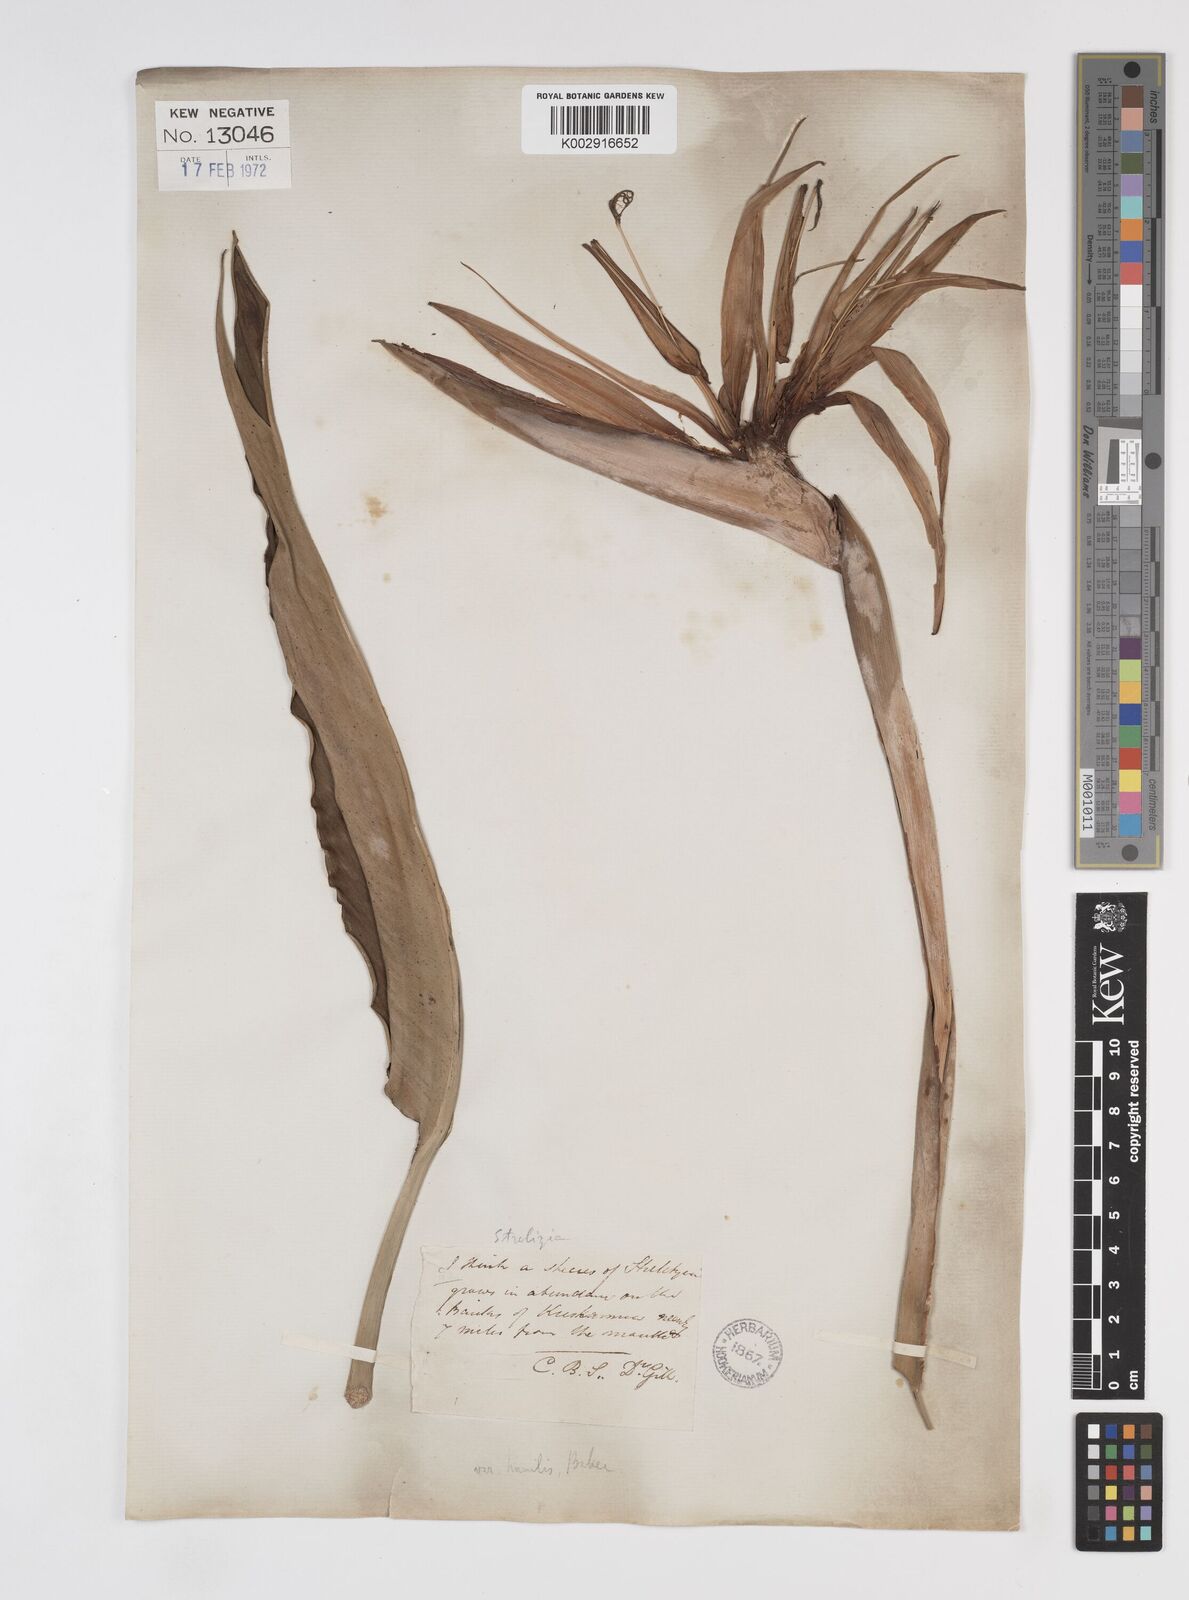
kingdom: Plantae
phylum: Tracheophyta
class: Liliopsida
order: Zingiberales
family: Strelitziaceae
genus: Strelitzia
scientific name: Strelitzia reginae
